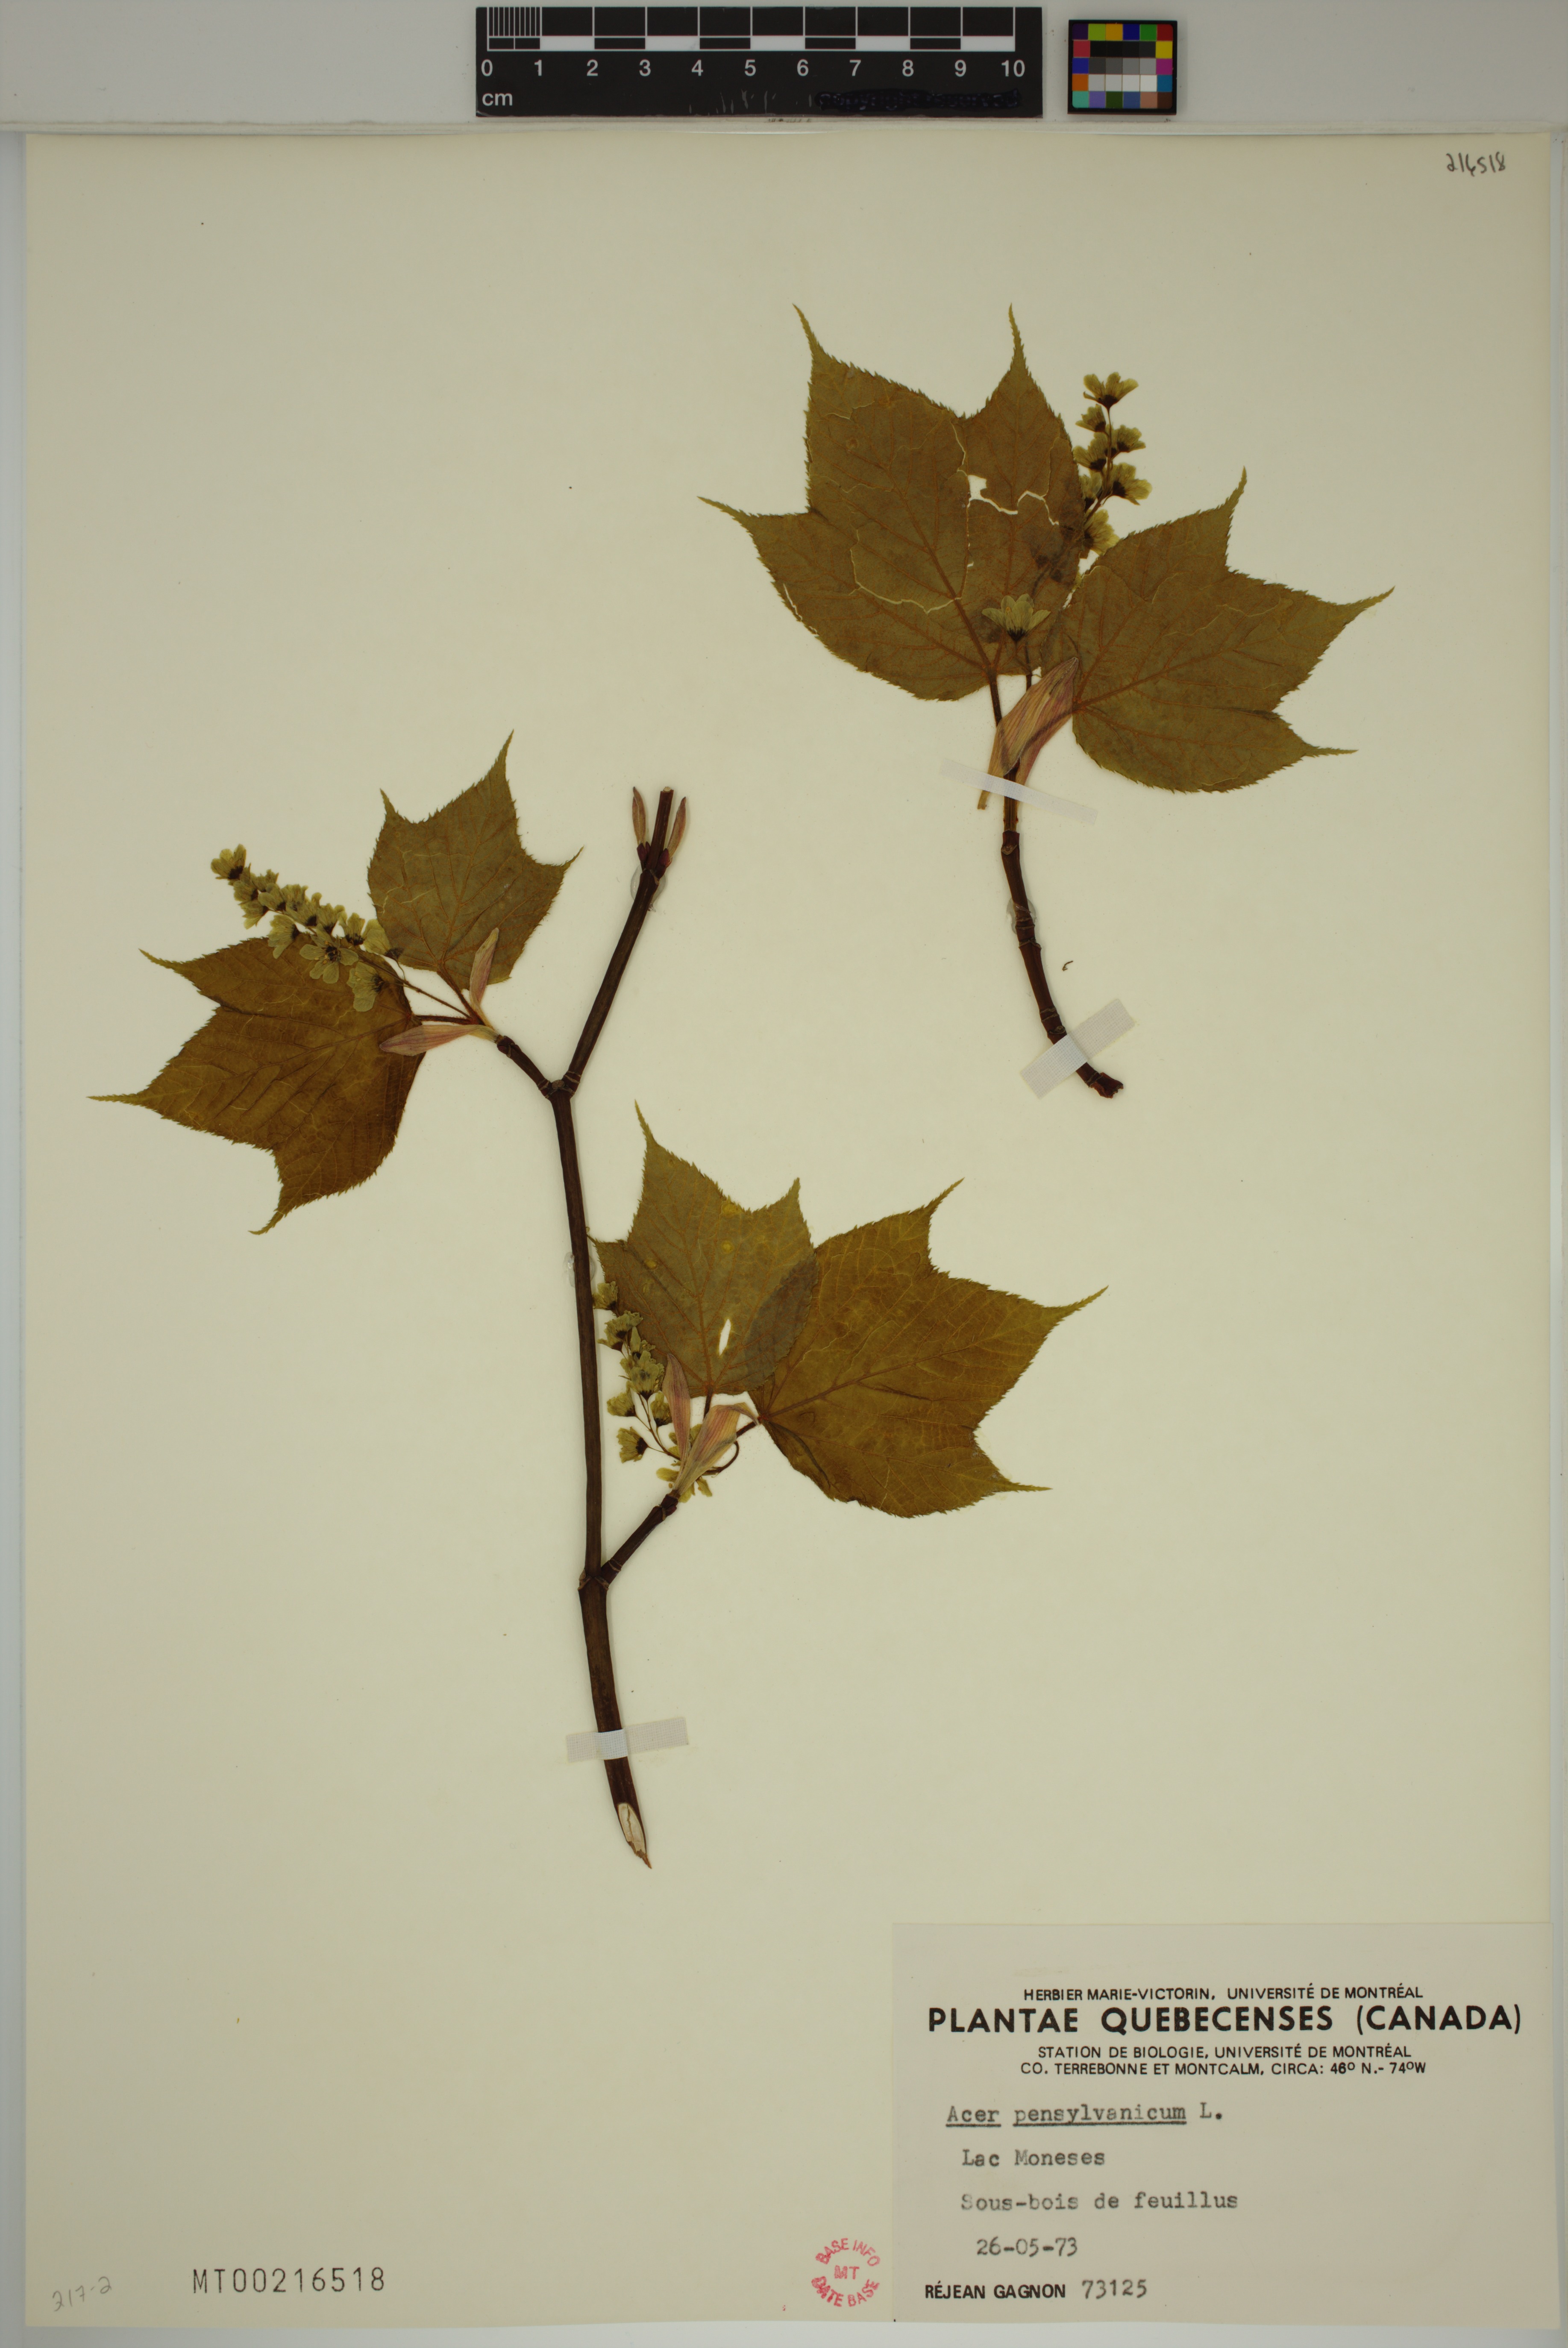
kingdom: Plantae
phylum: Tracheophyta
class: Magnoliopsida
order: Sapindales
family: Sapindaceae
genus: Acer
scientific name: Acer pensylvanicum
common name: Moosewood
